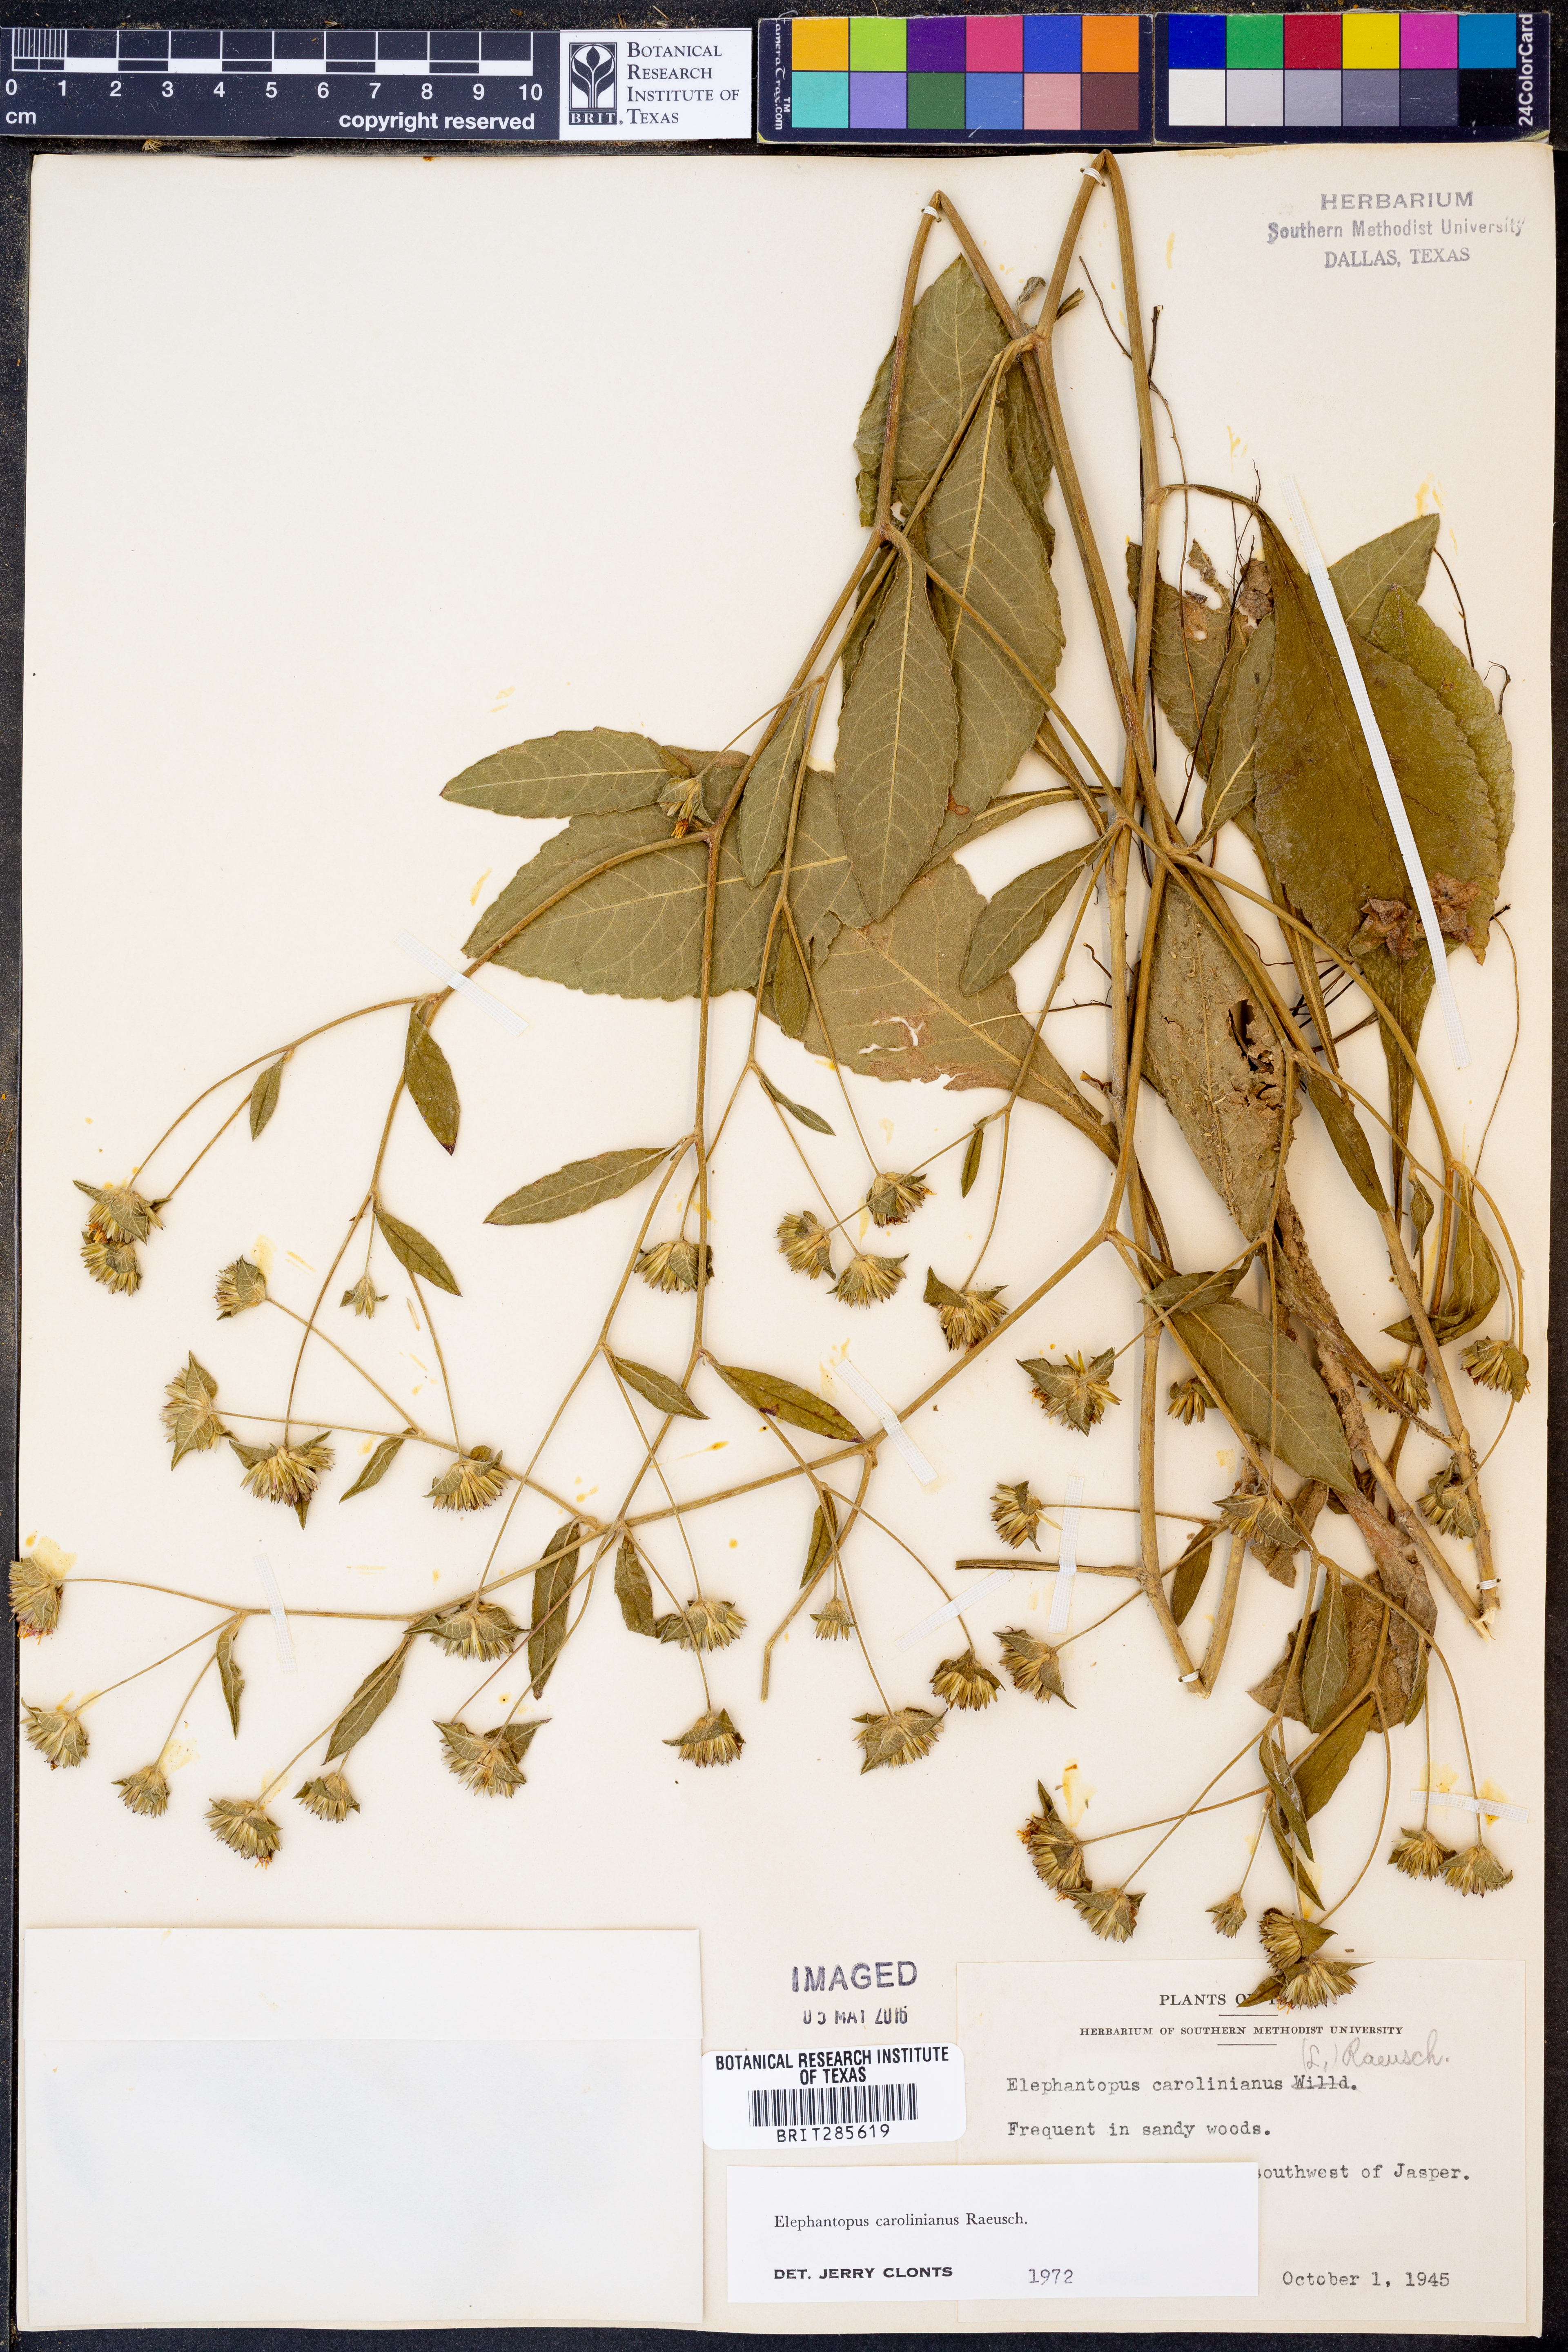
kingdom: Plantae
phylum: Tracheophyta
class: Magnoliopsida
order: Asterales
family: Asteraceae
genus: Elephantopus
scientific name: Elephantopus carolinianus
